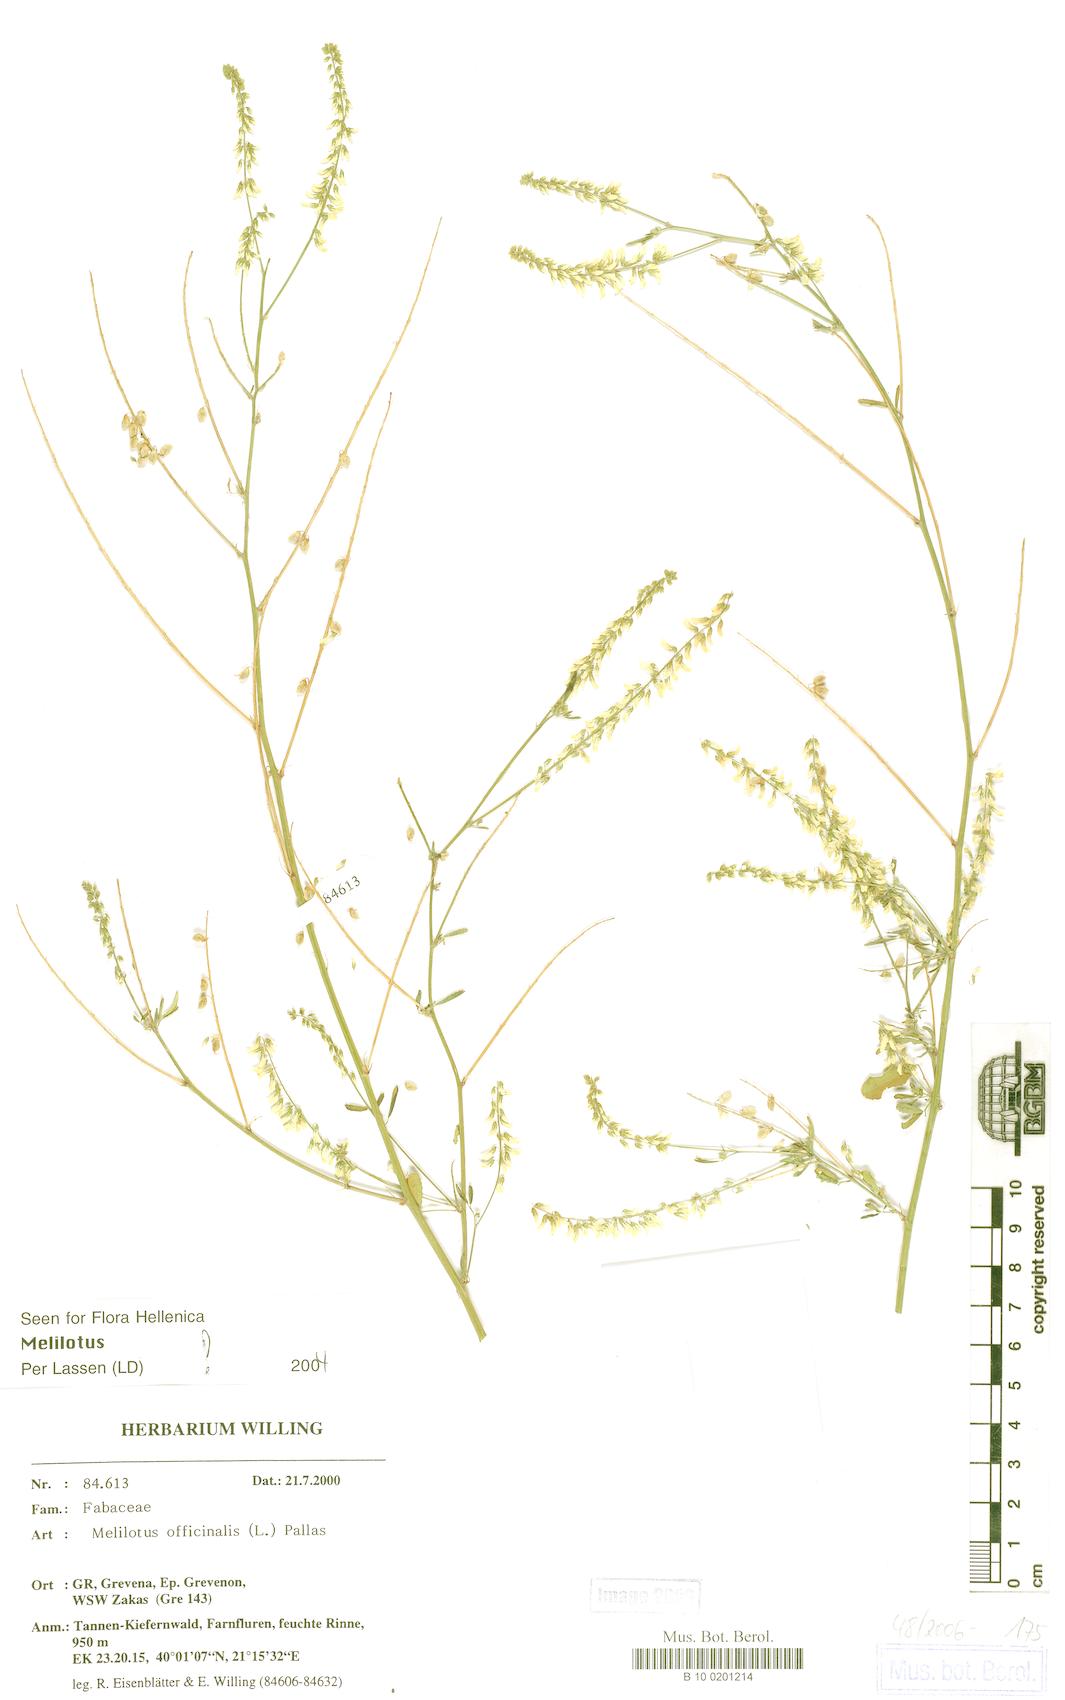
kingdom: Plantae
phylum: Tracheophyta
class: Magnoliopsida
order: Fabales
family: Fabaceae
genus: Melilotus
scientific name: Melilotus officinalis
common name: Sweetclover
